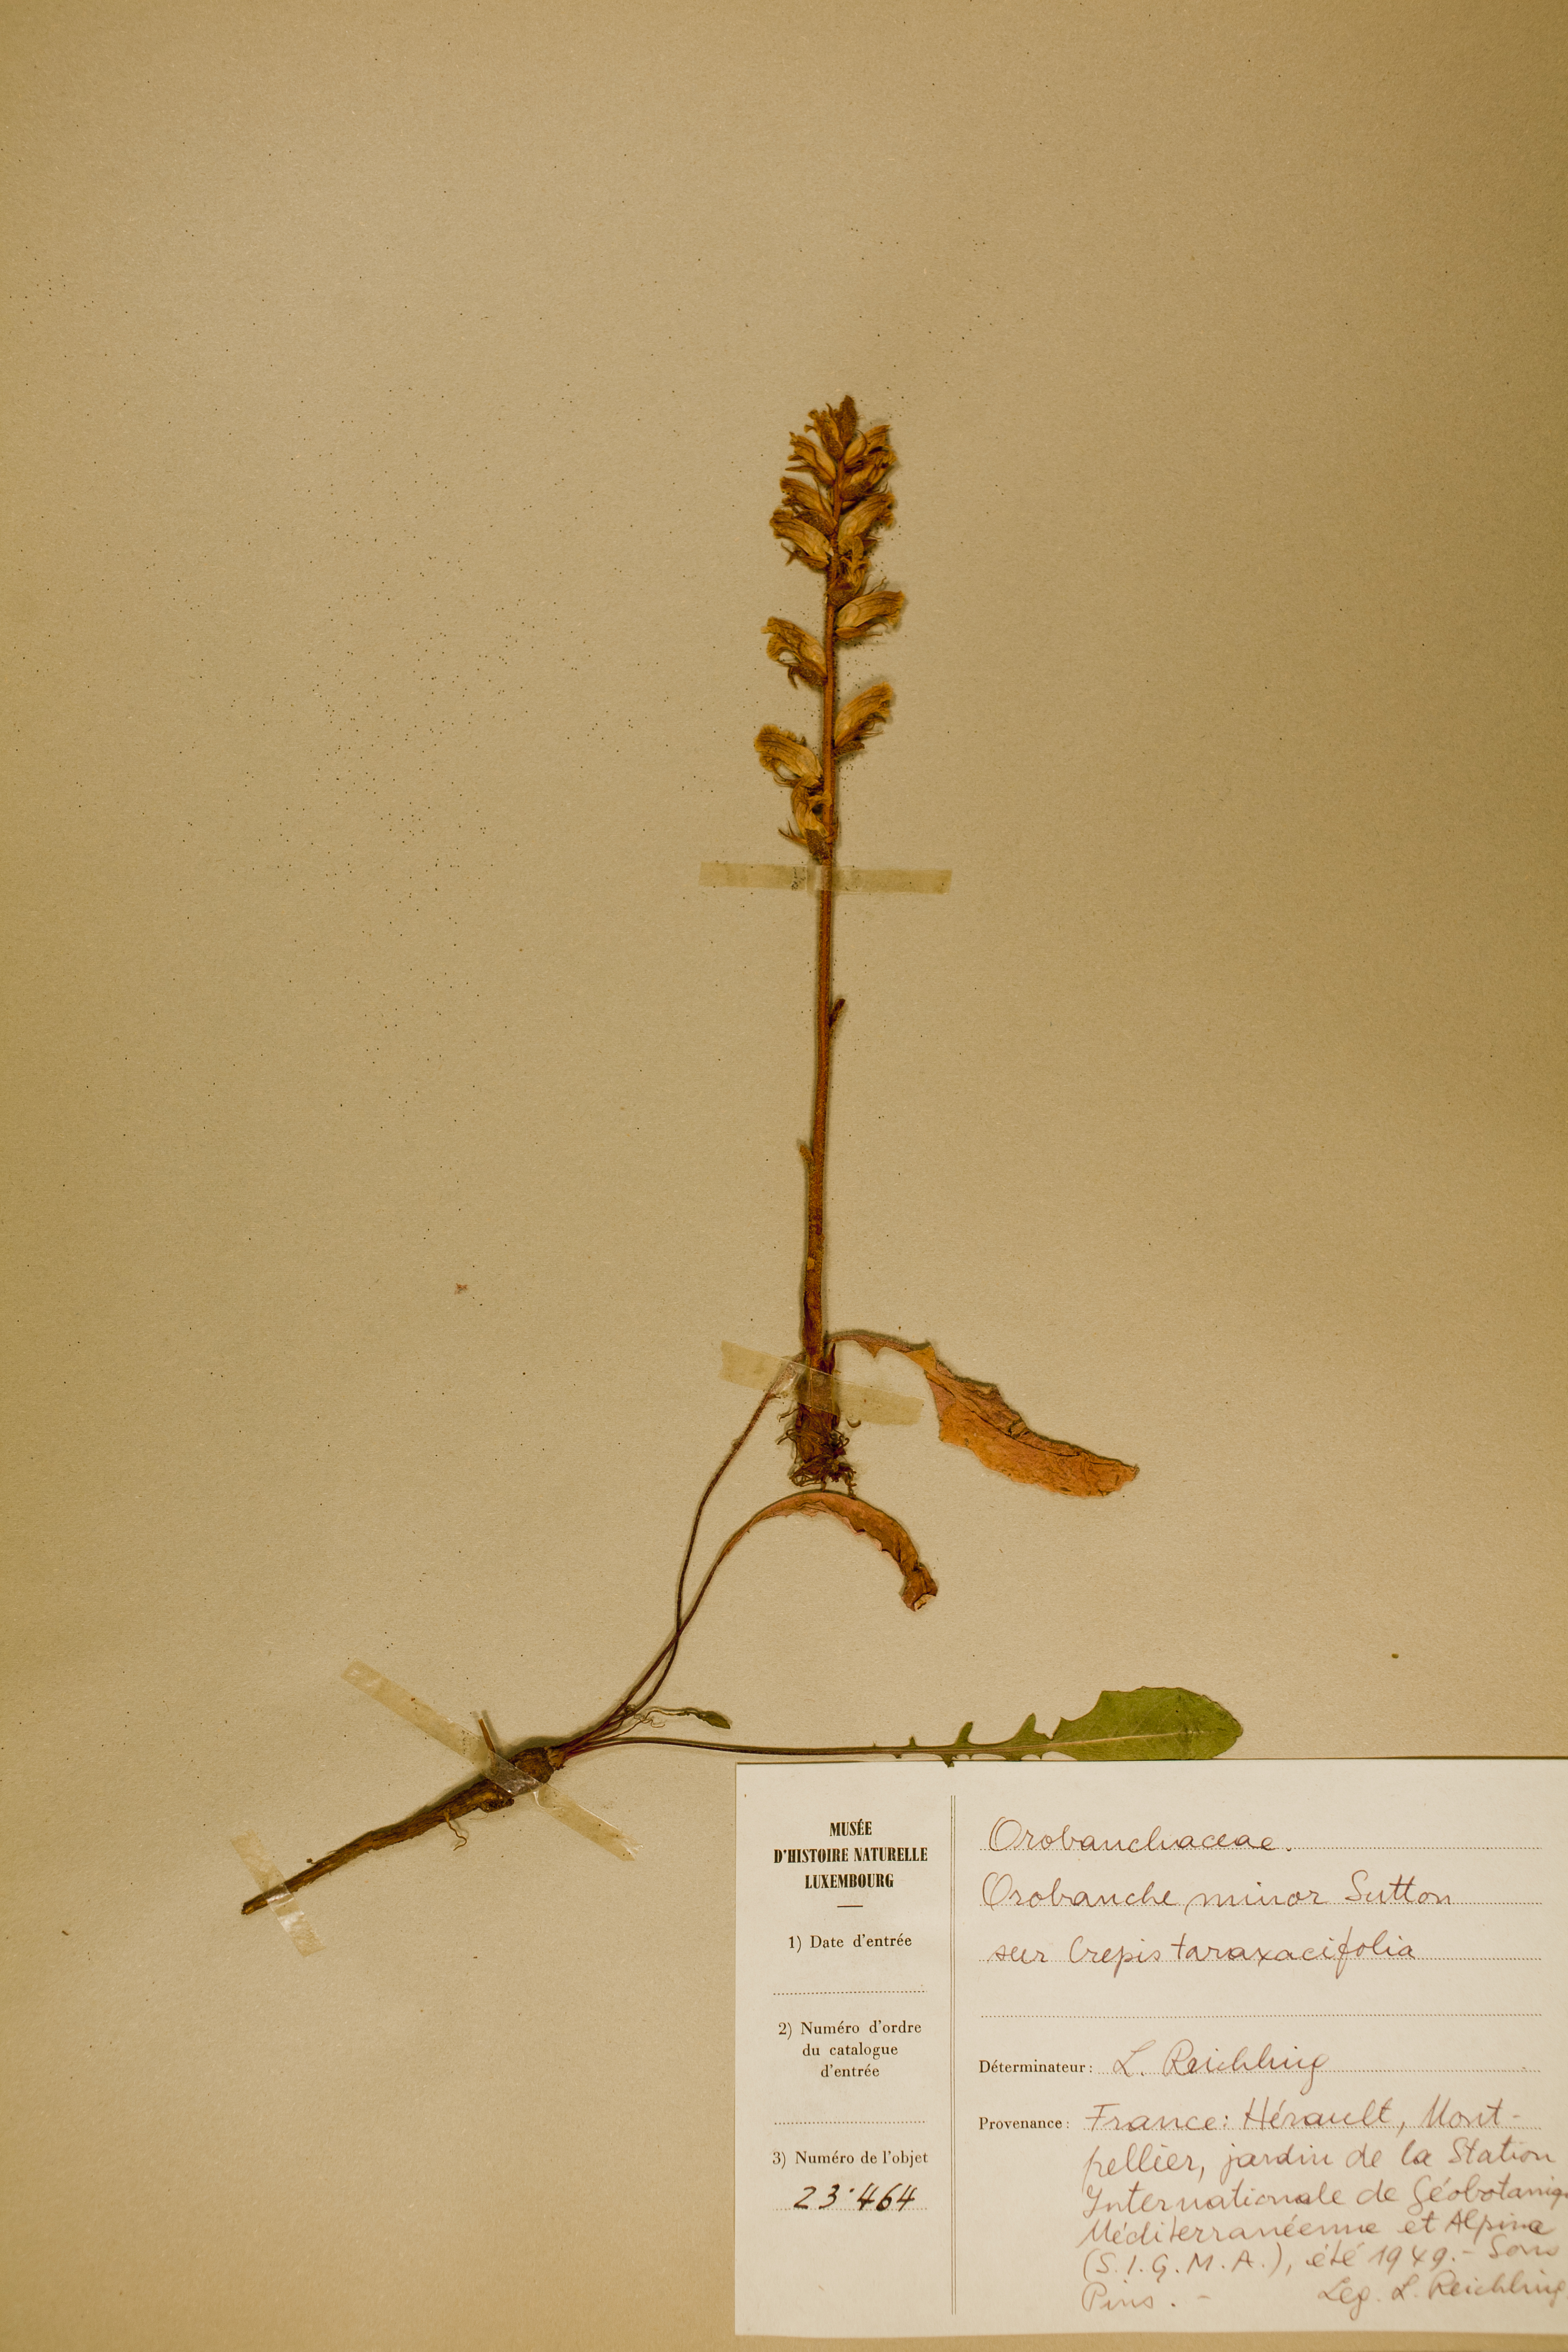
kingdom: Plantae
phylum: Tracheophyta
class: Liliopsida
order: Poales
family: Cyperaceae
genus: Carex
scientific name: Carex lasiocarpa
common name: Slender sedge
